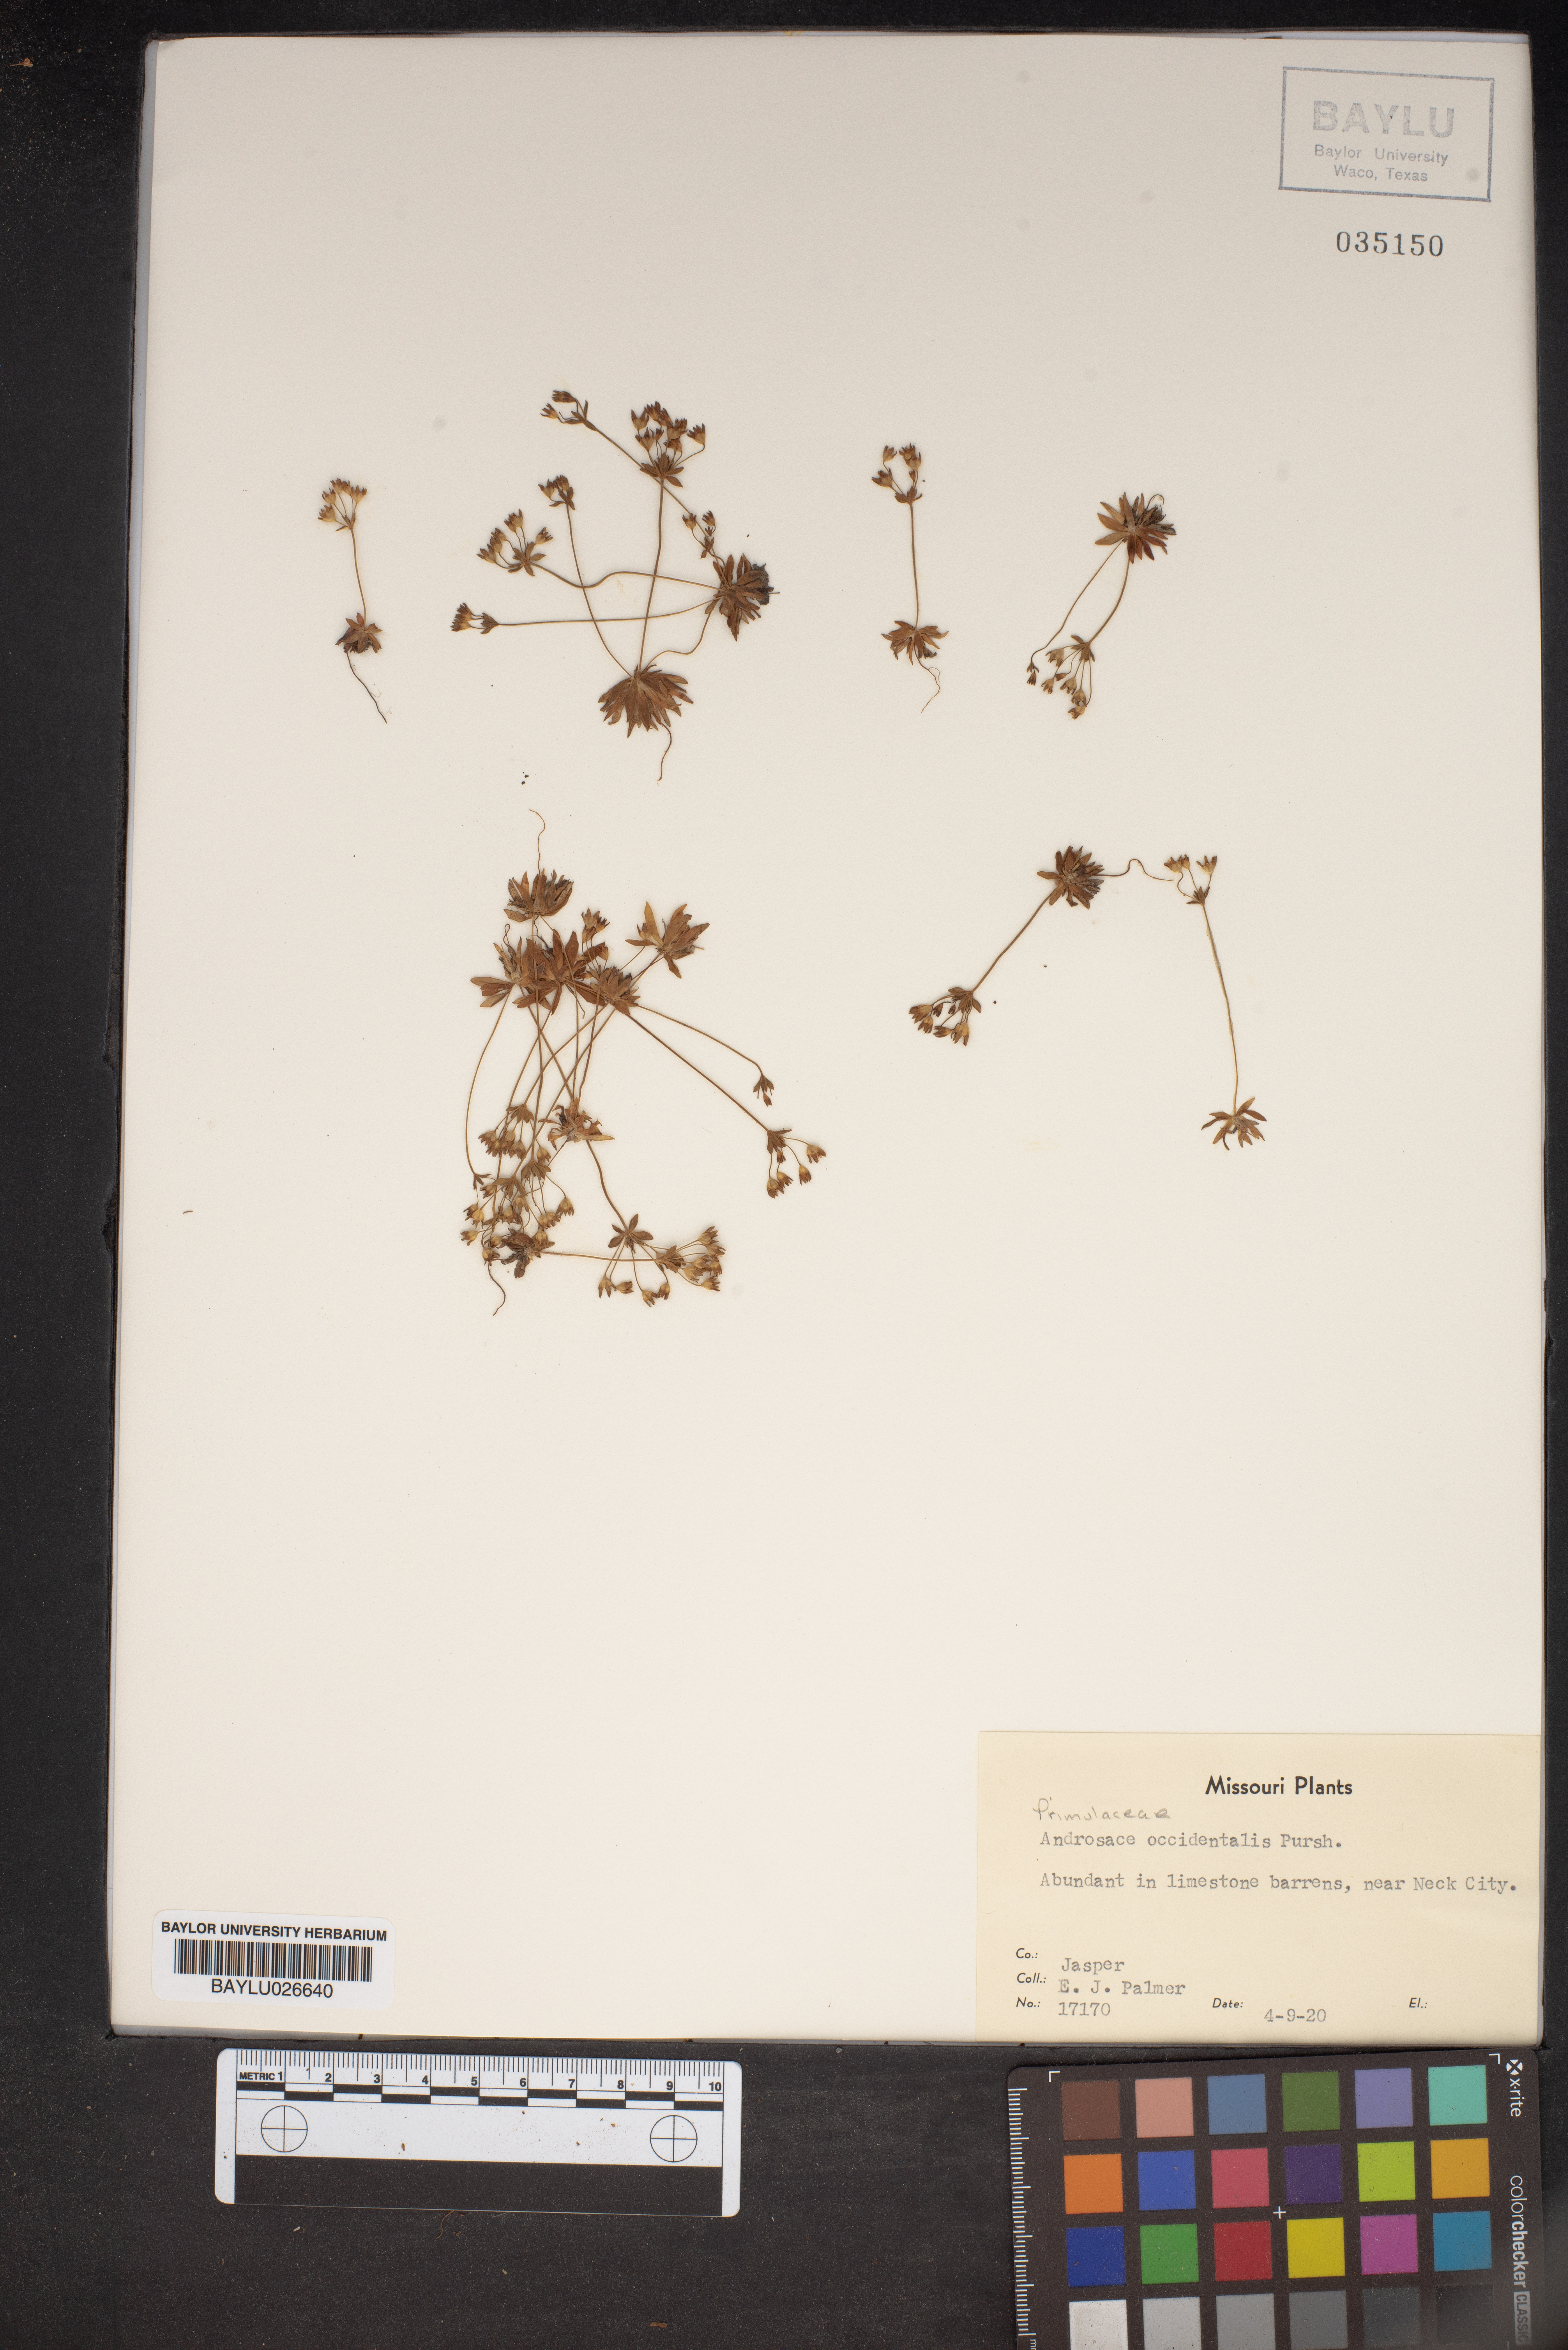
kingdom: Plantae
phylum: Tracheophyta
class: Magnoliopsida
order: Ericales
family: Primulaceae
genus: Androsace
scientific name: Androsace occidentalis
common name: West rock-jasmine
